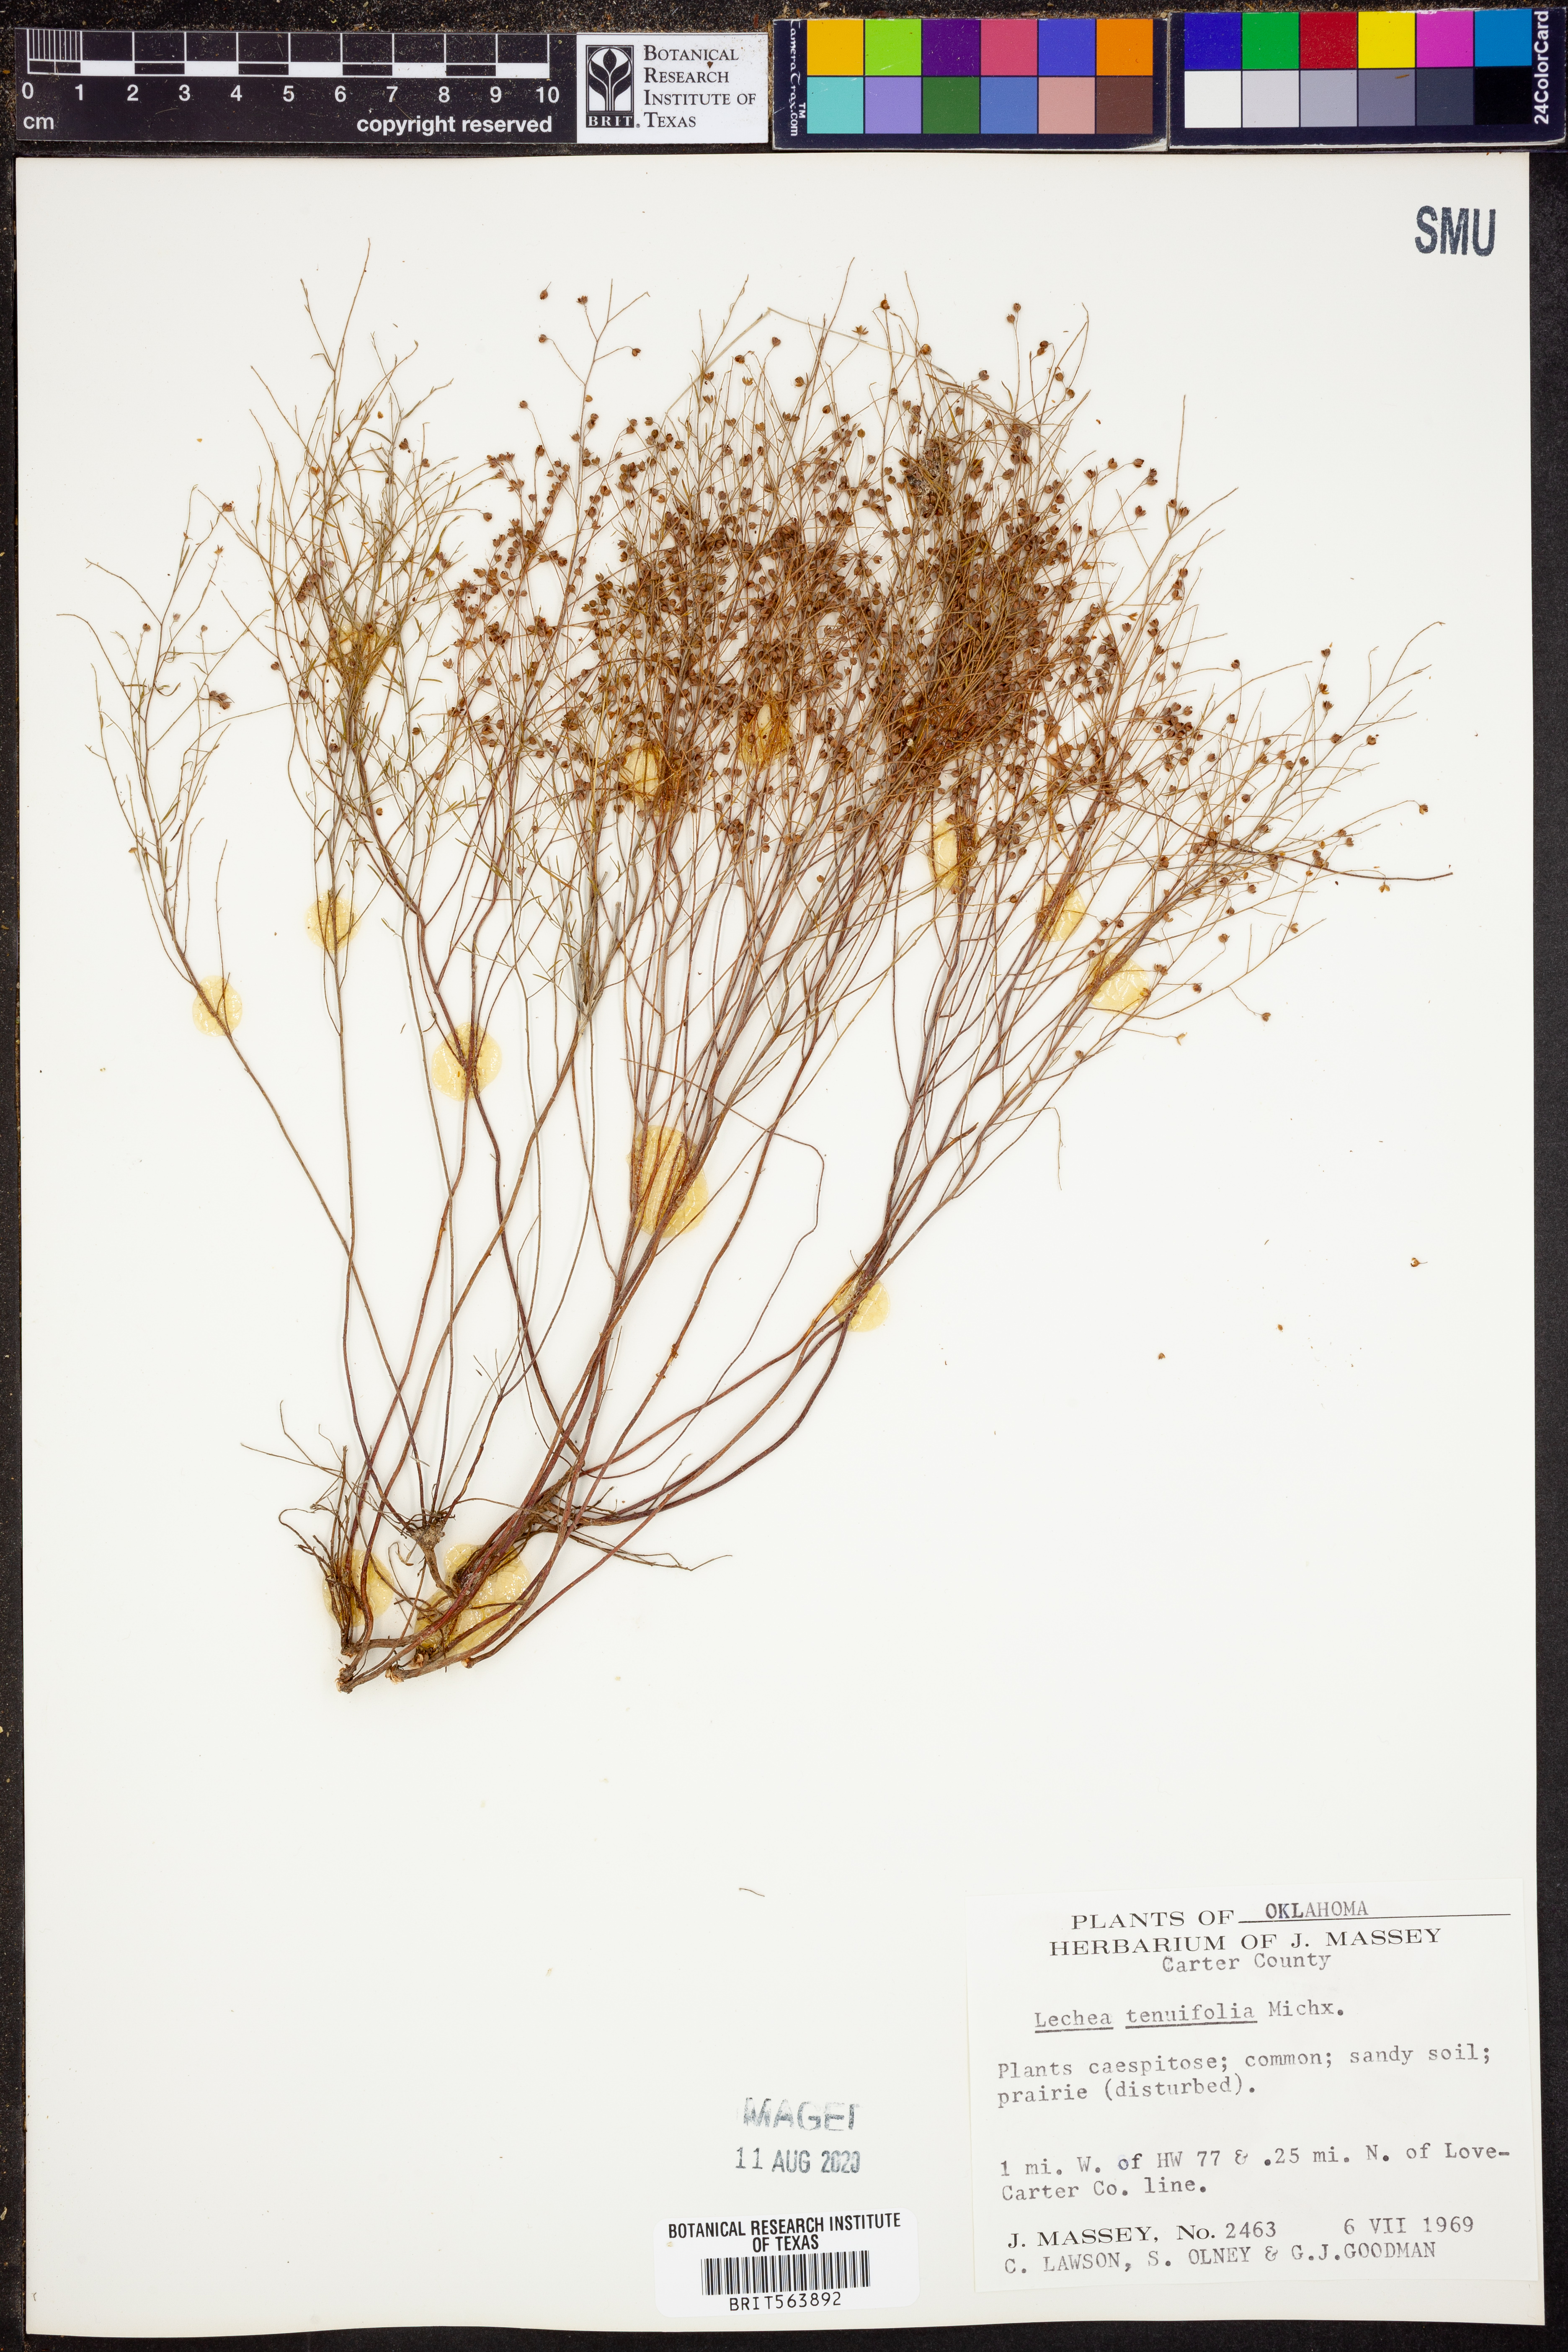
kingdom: Plantae
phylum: Tracheophyta
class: Magnoliopsida
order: Malvales
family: Cistaceae
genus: Lechea
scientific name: Lechea tenuifolia
